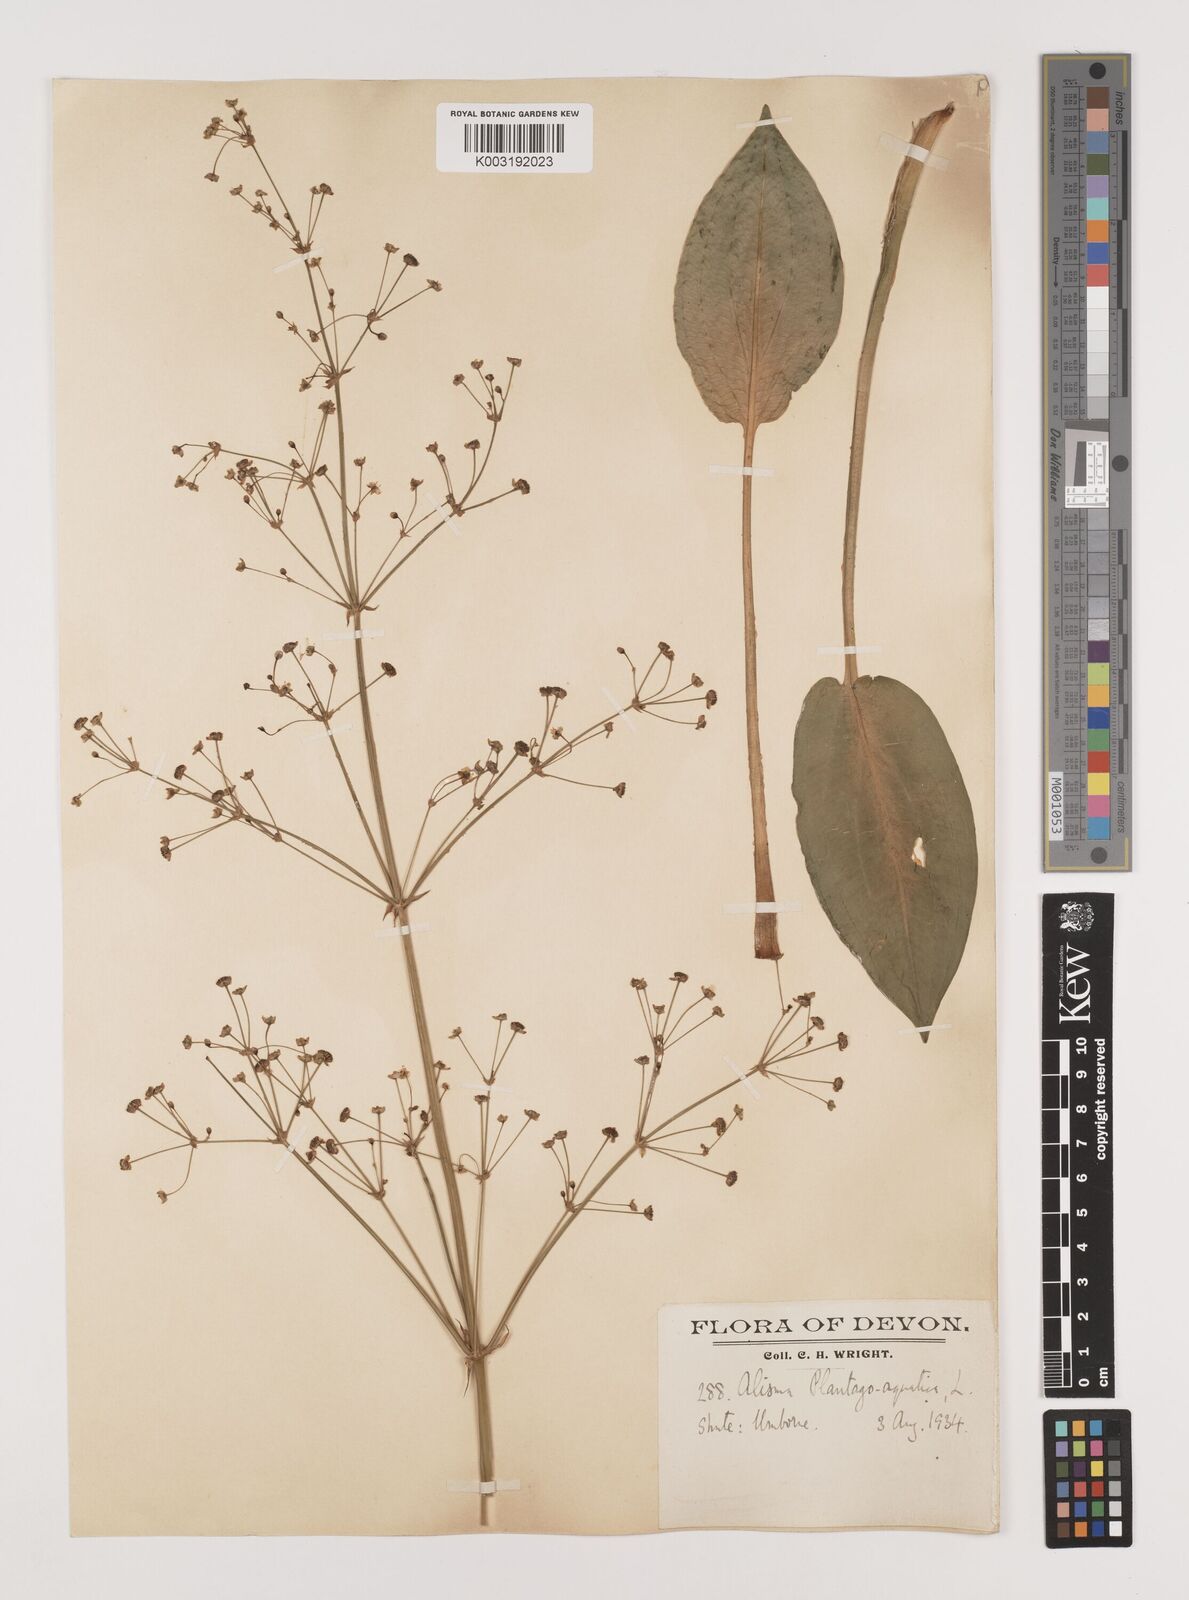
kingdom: Plantae
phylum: Tracheophyta
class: Liliopsida
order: Alismatales
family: Alismataceae
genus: Alisma
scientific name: Alisma plantago-aquatica
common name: Water-plantain
